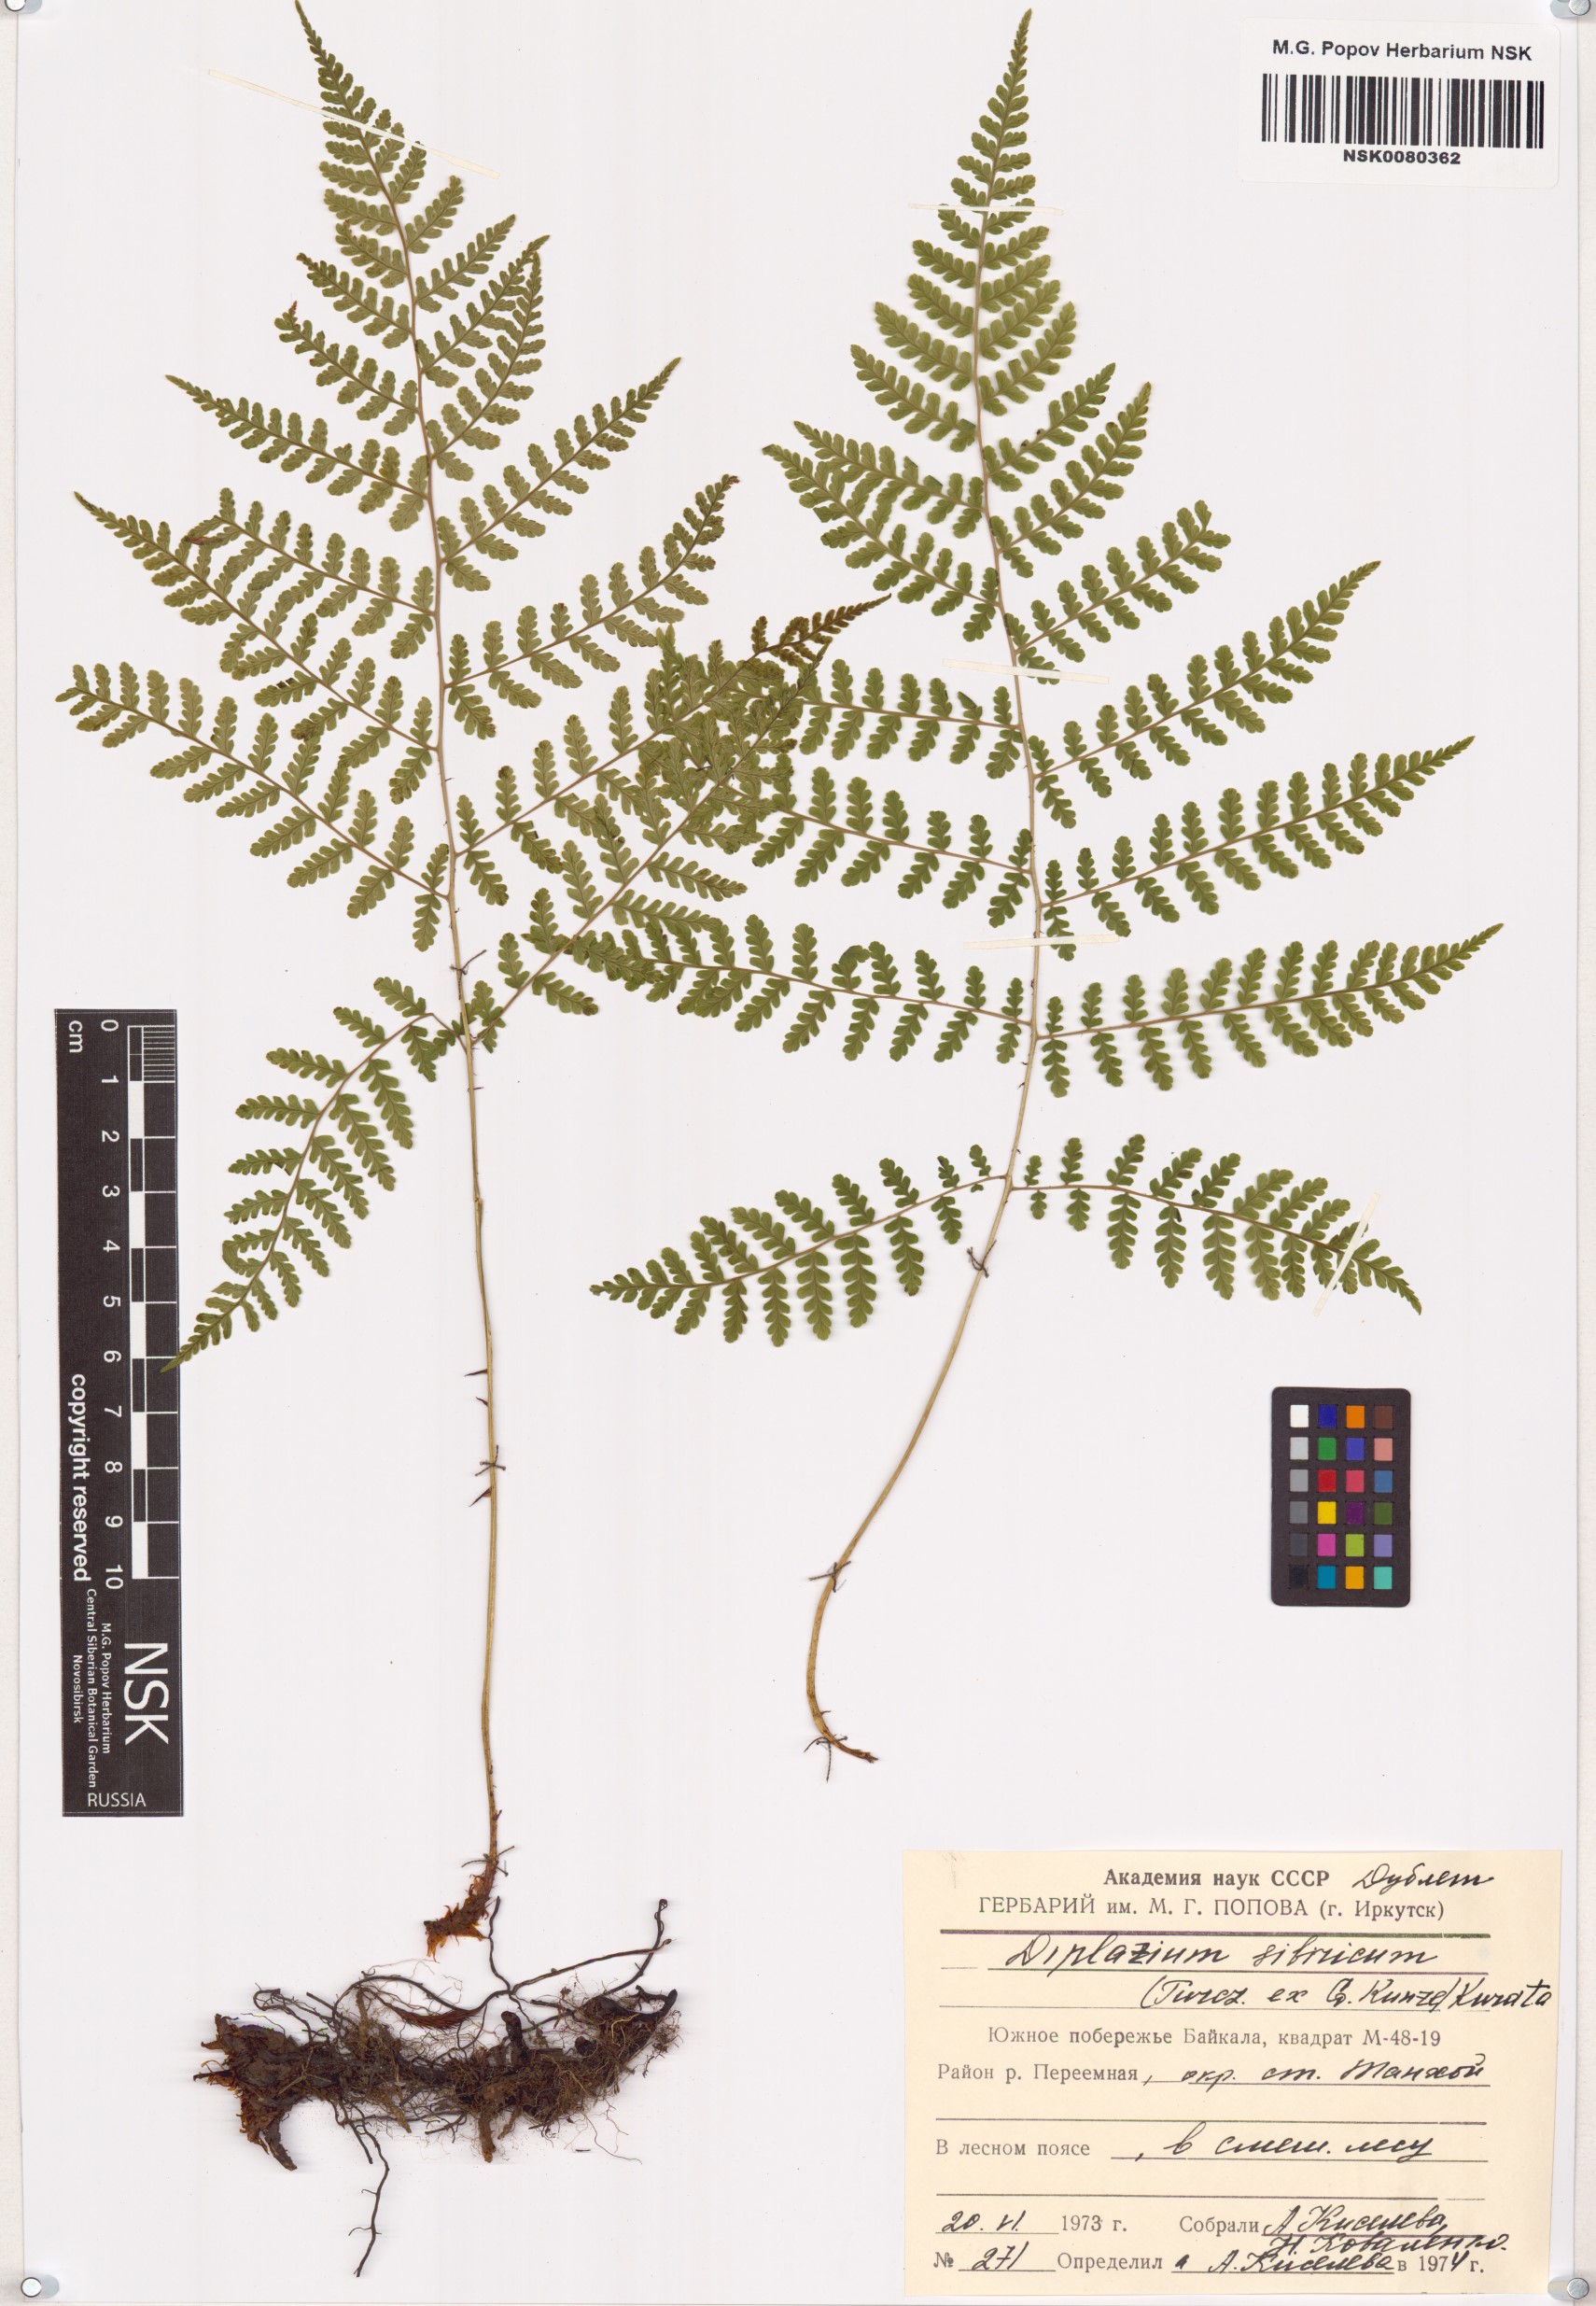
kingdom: Plantae
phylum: Tracheophyta
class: Polypodiopsida
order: Polypodiales
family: Athyriaceae
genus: Diplazium
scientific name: Diplazium sibiricum
